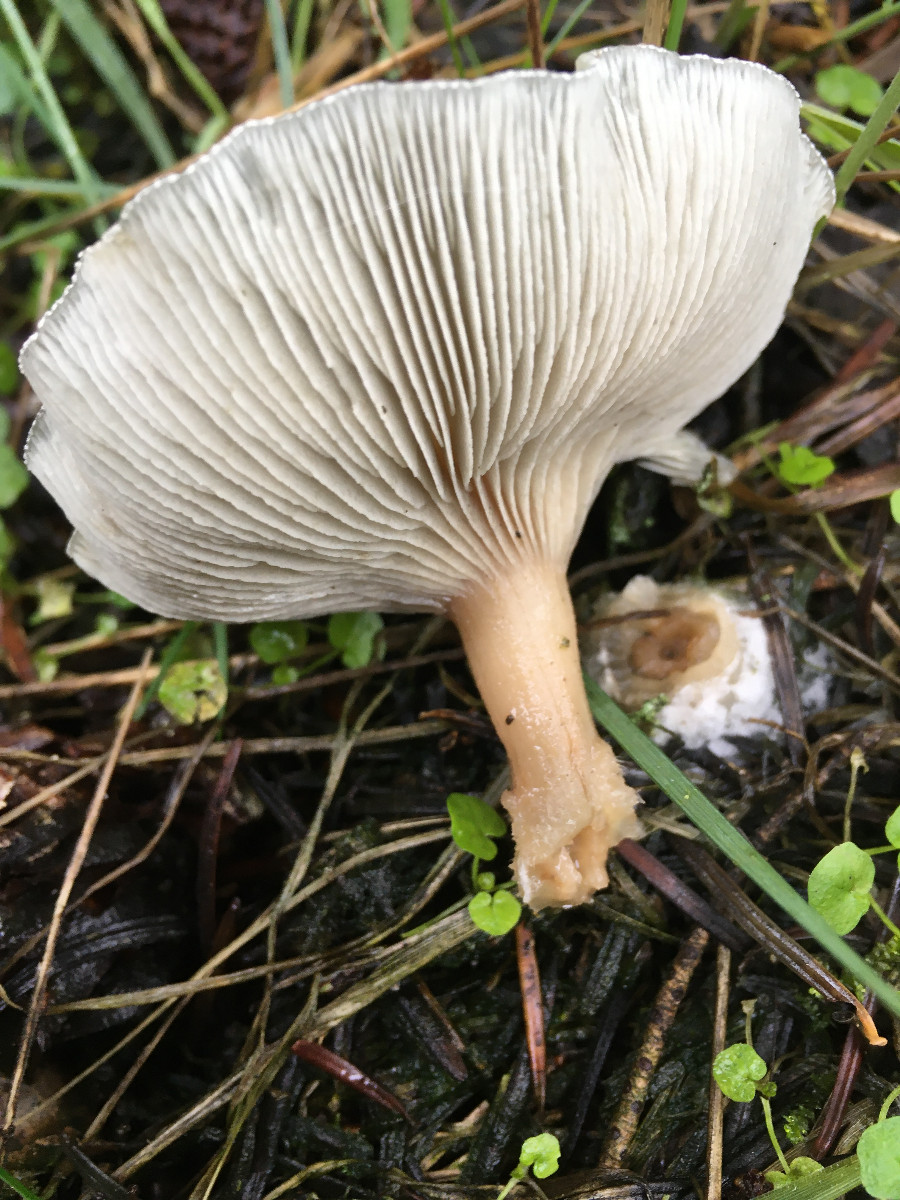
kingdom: Fungi
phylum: Basidiomycota
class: Agaricomycetes
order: Agaricales
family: Tricholomataceae
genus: Clitocybe
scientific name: Clitocybe odora
